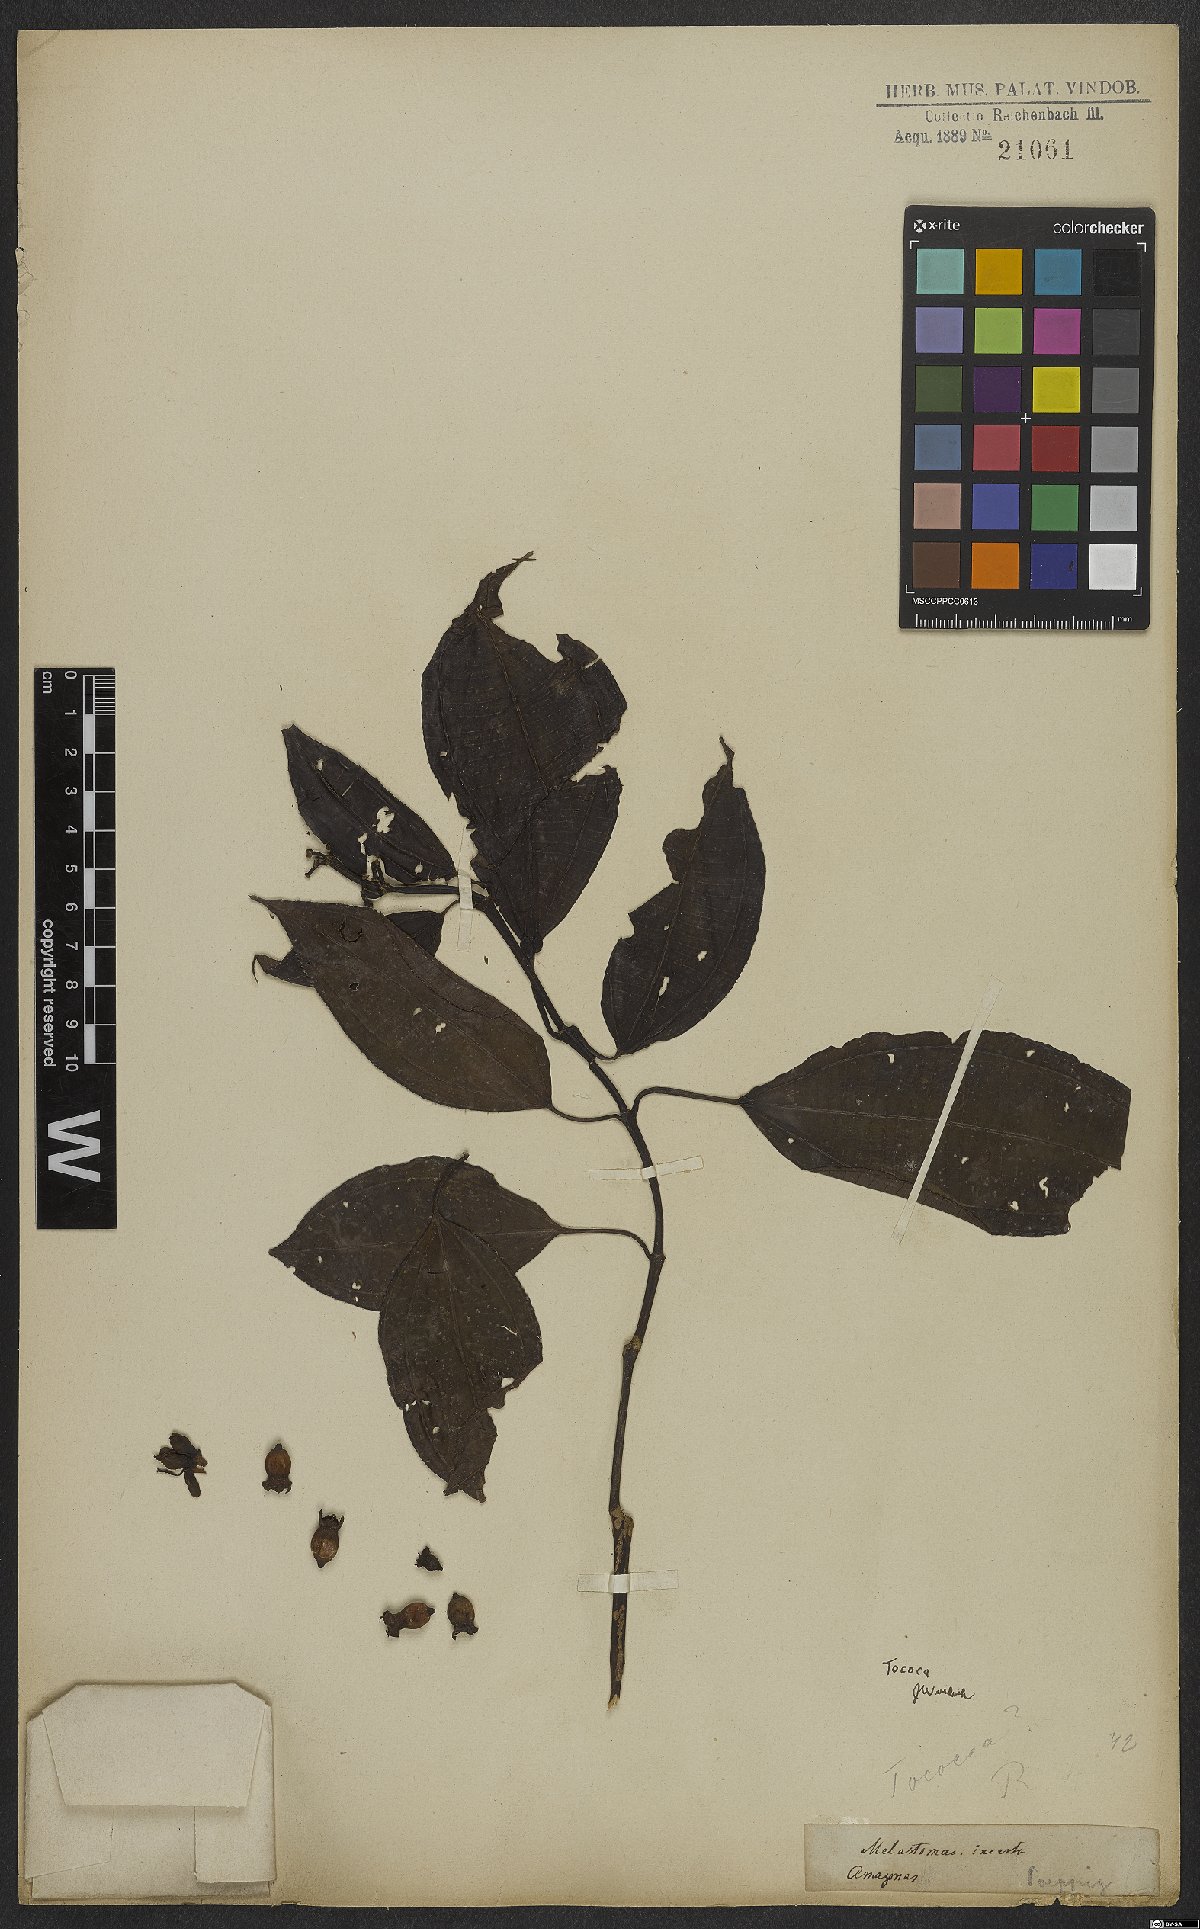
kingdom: Plantae
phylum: Tracheophyta
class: Magnoliopsida
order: Myrtales
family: Melastomataceae
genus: Miconia
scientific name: Miconia
